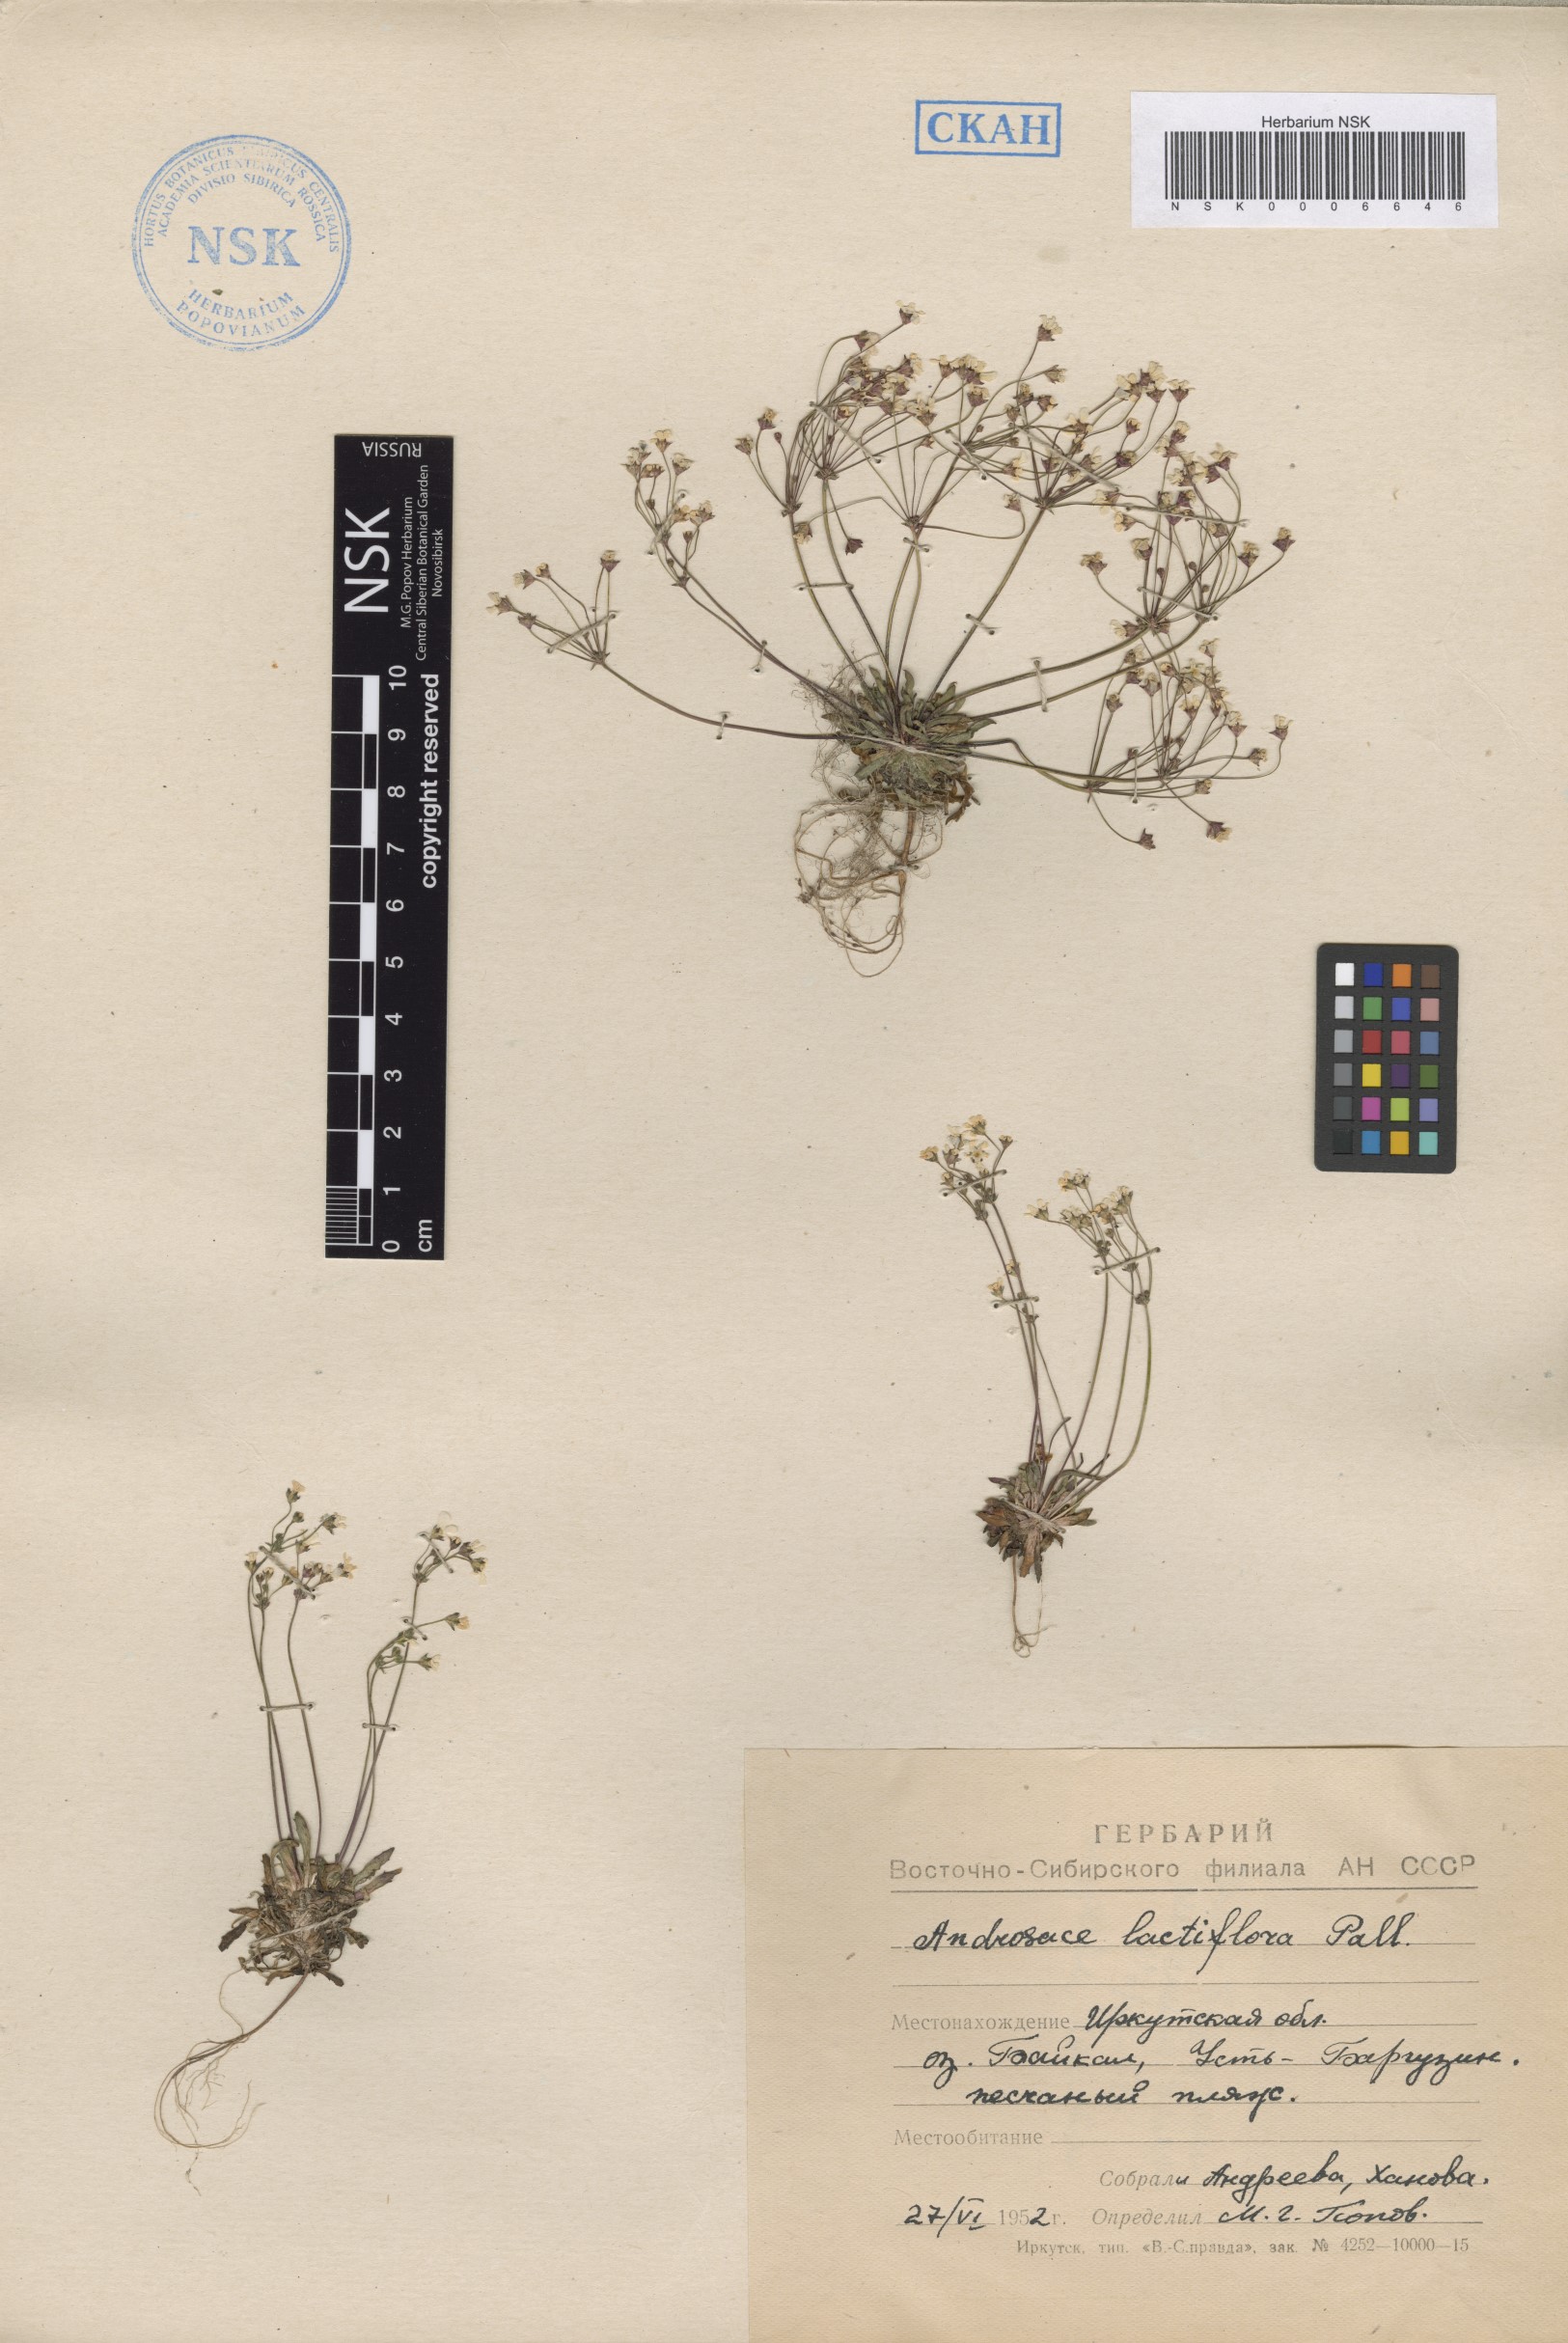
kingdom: Plantae
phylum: Tracheophyta
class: Magnoliopsida
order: Ericales
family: Primulaceae
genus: Androsace
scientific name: Androsace lactiflora
